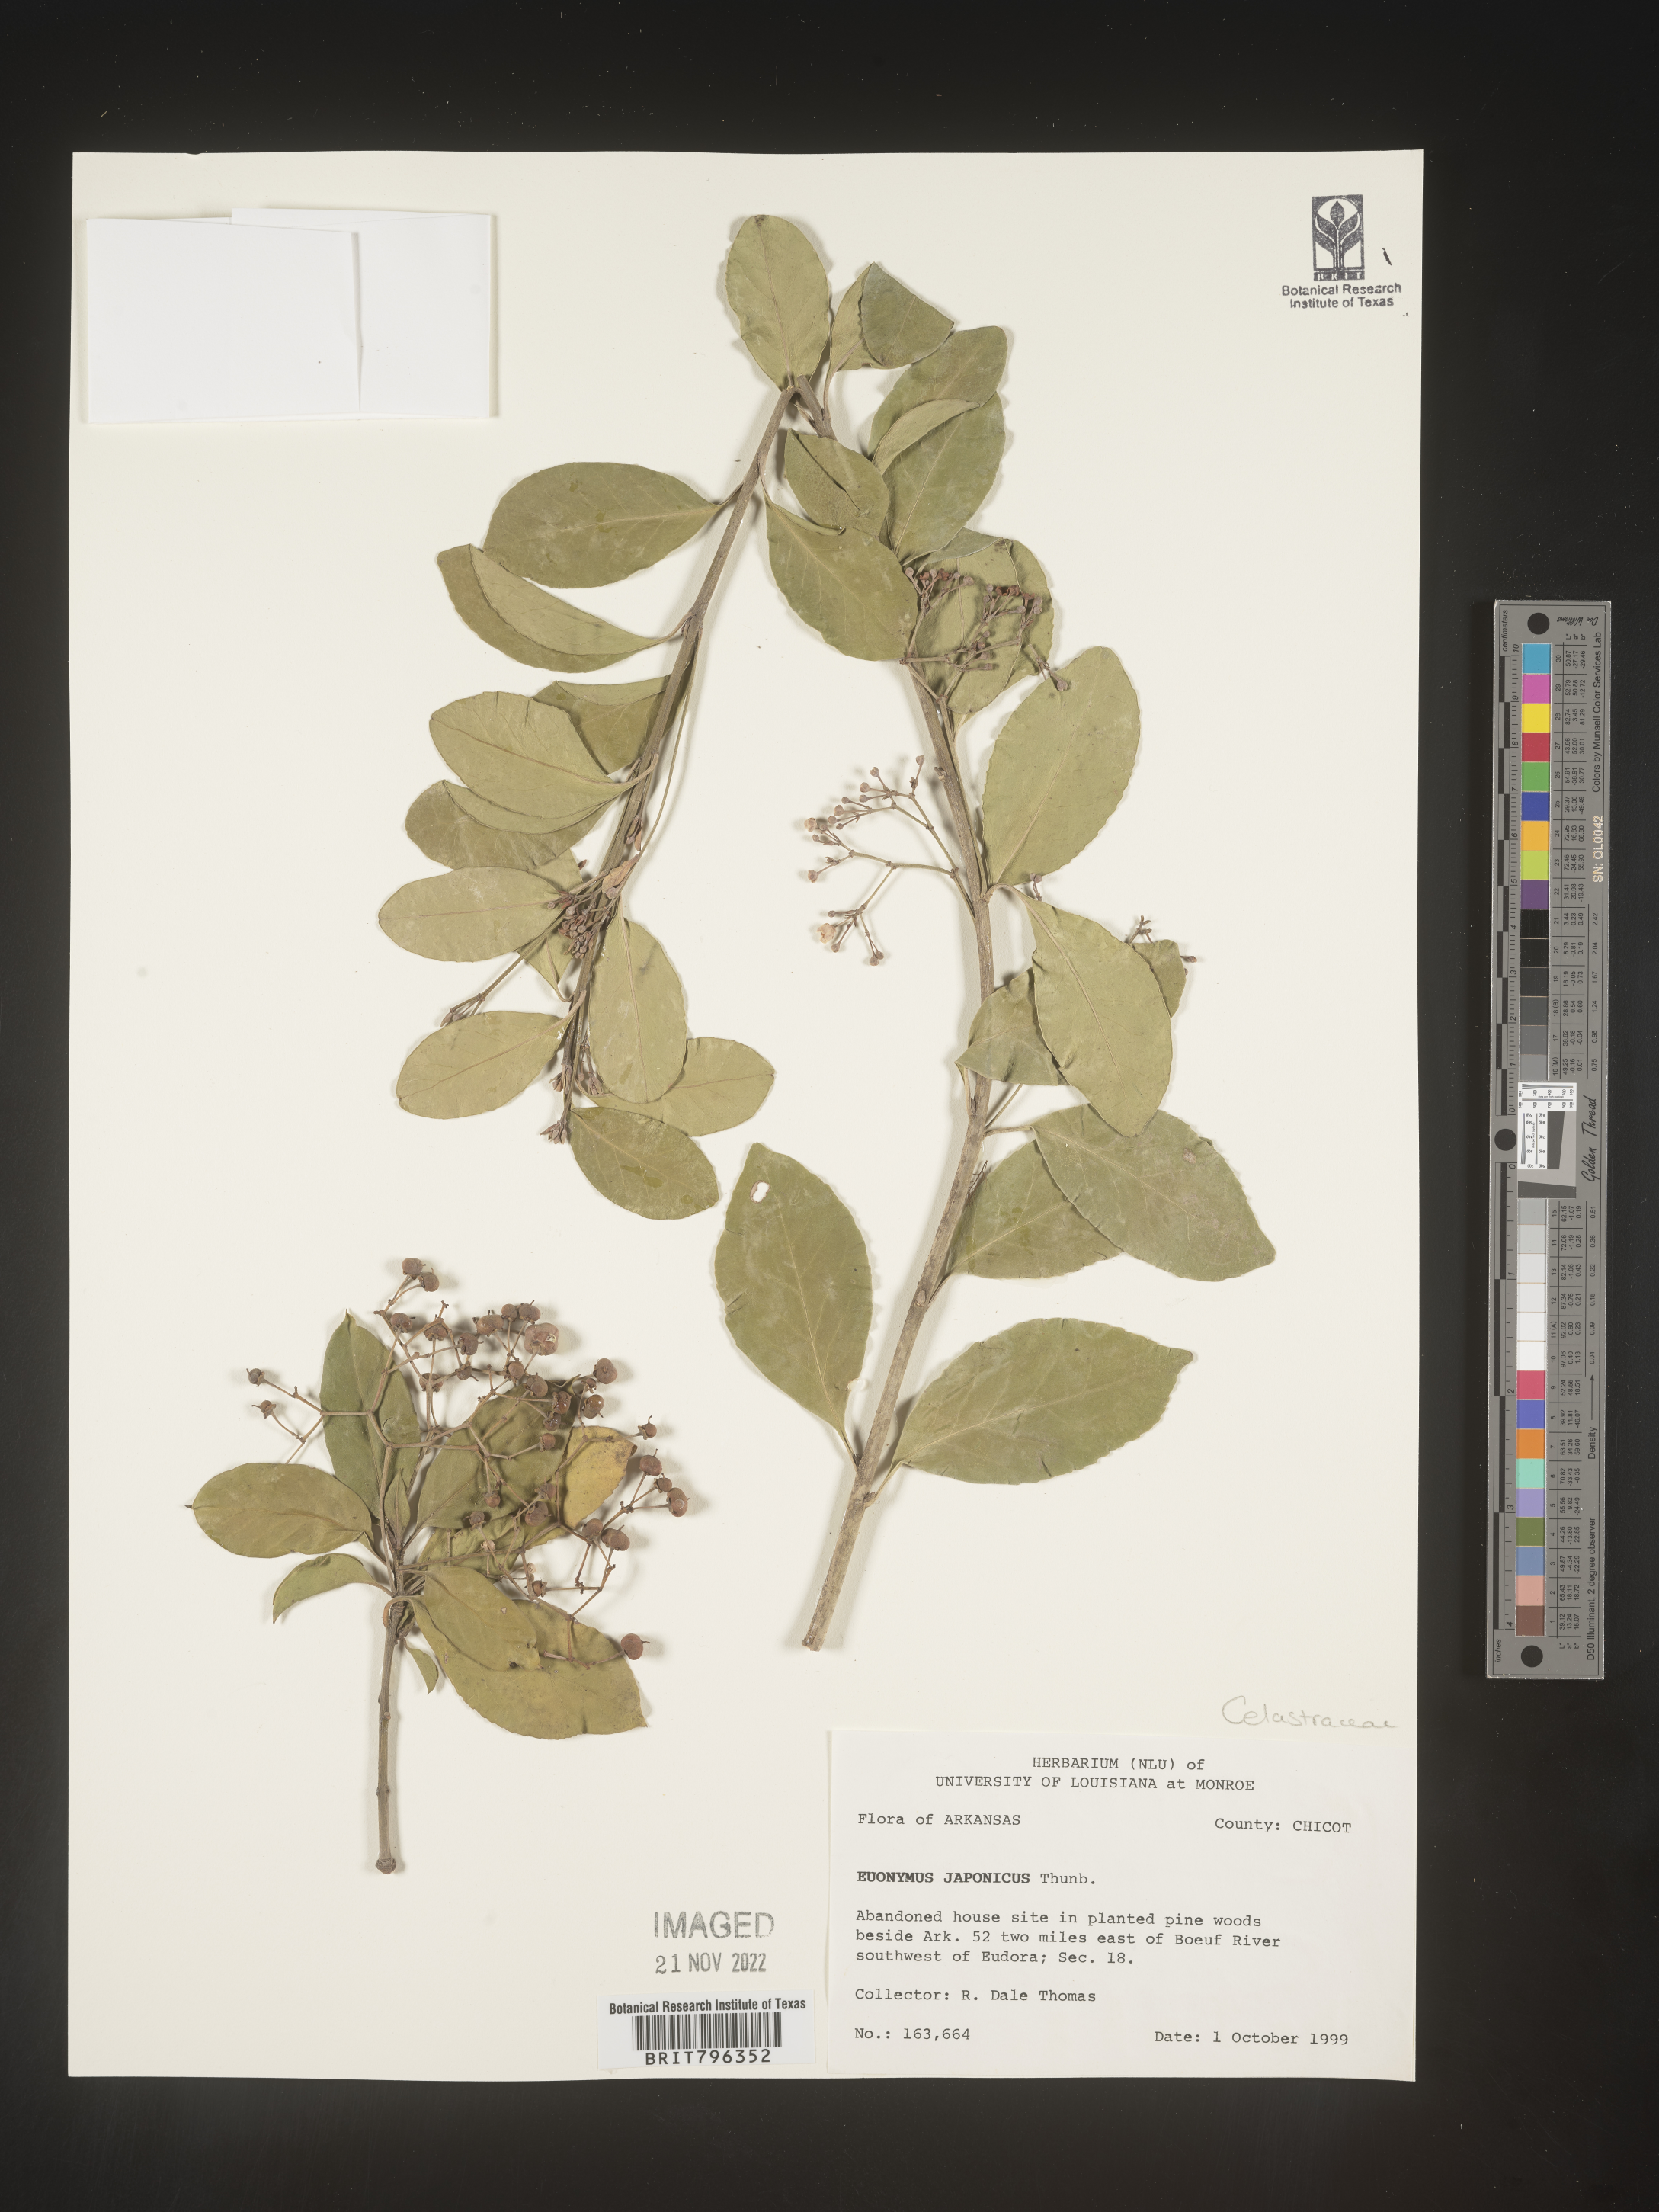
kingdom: Plantae
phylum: Tracheophyta
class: Magnoliopsida
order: Celastrales
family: Celastraceae
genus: Euonymus
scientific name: Euonymus japonicus
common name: Japanese spindletree
